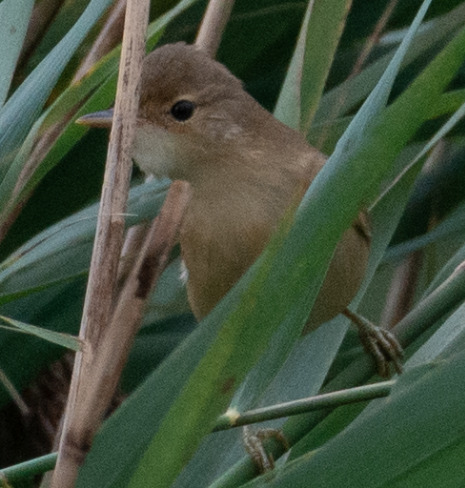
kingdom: Animalia
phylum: Chordata
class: Aves
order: Passeriformes
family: Acrocephalidae
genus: Acrocephalus
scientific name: Acrocephalus scirpaceus
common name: Rørsanger
